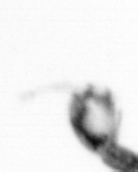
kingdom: Animalia
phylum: Arthropoda
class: Copepoda
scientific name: Copepoda
